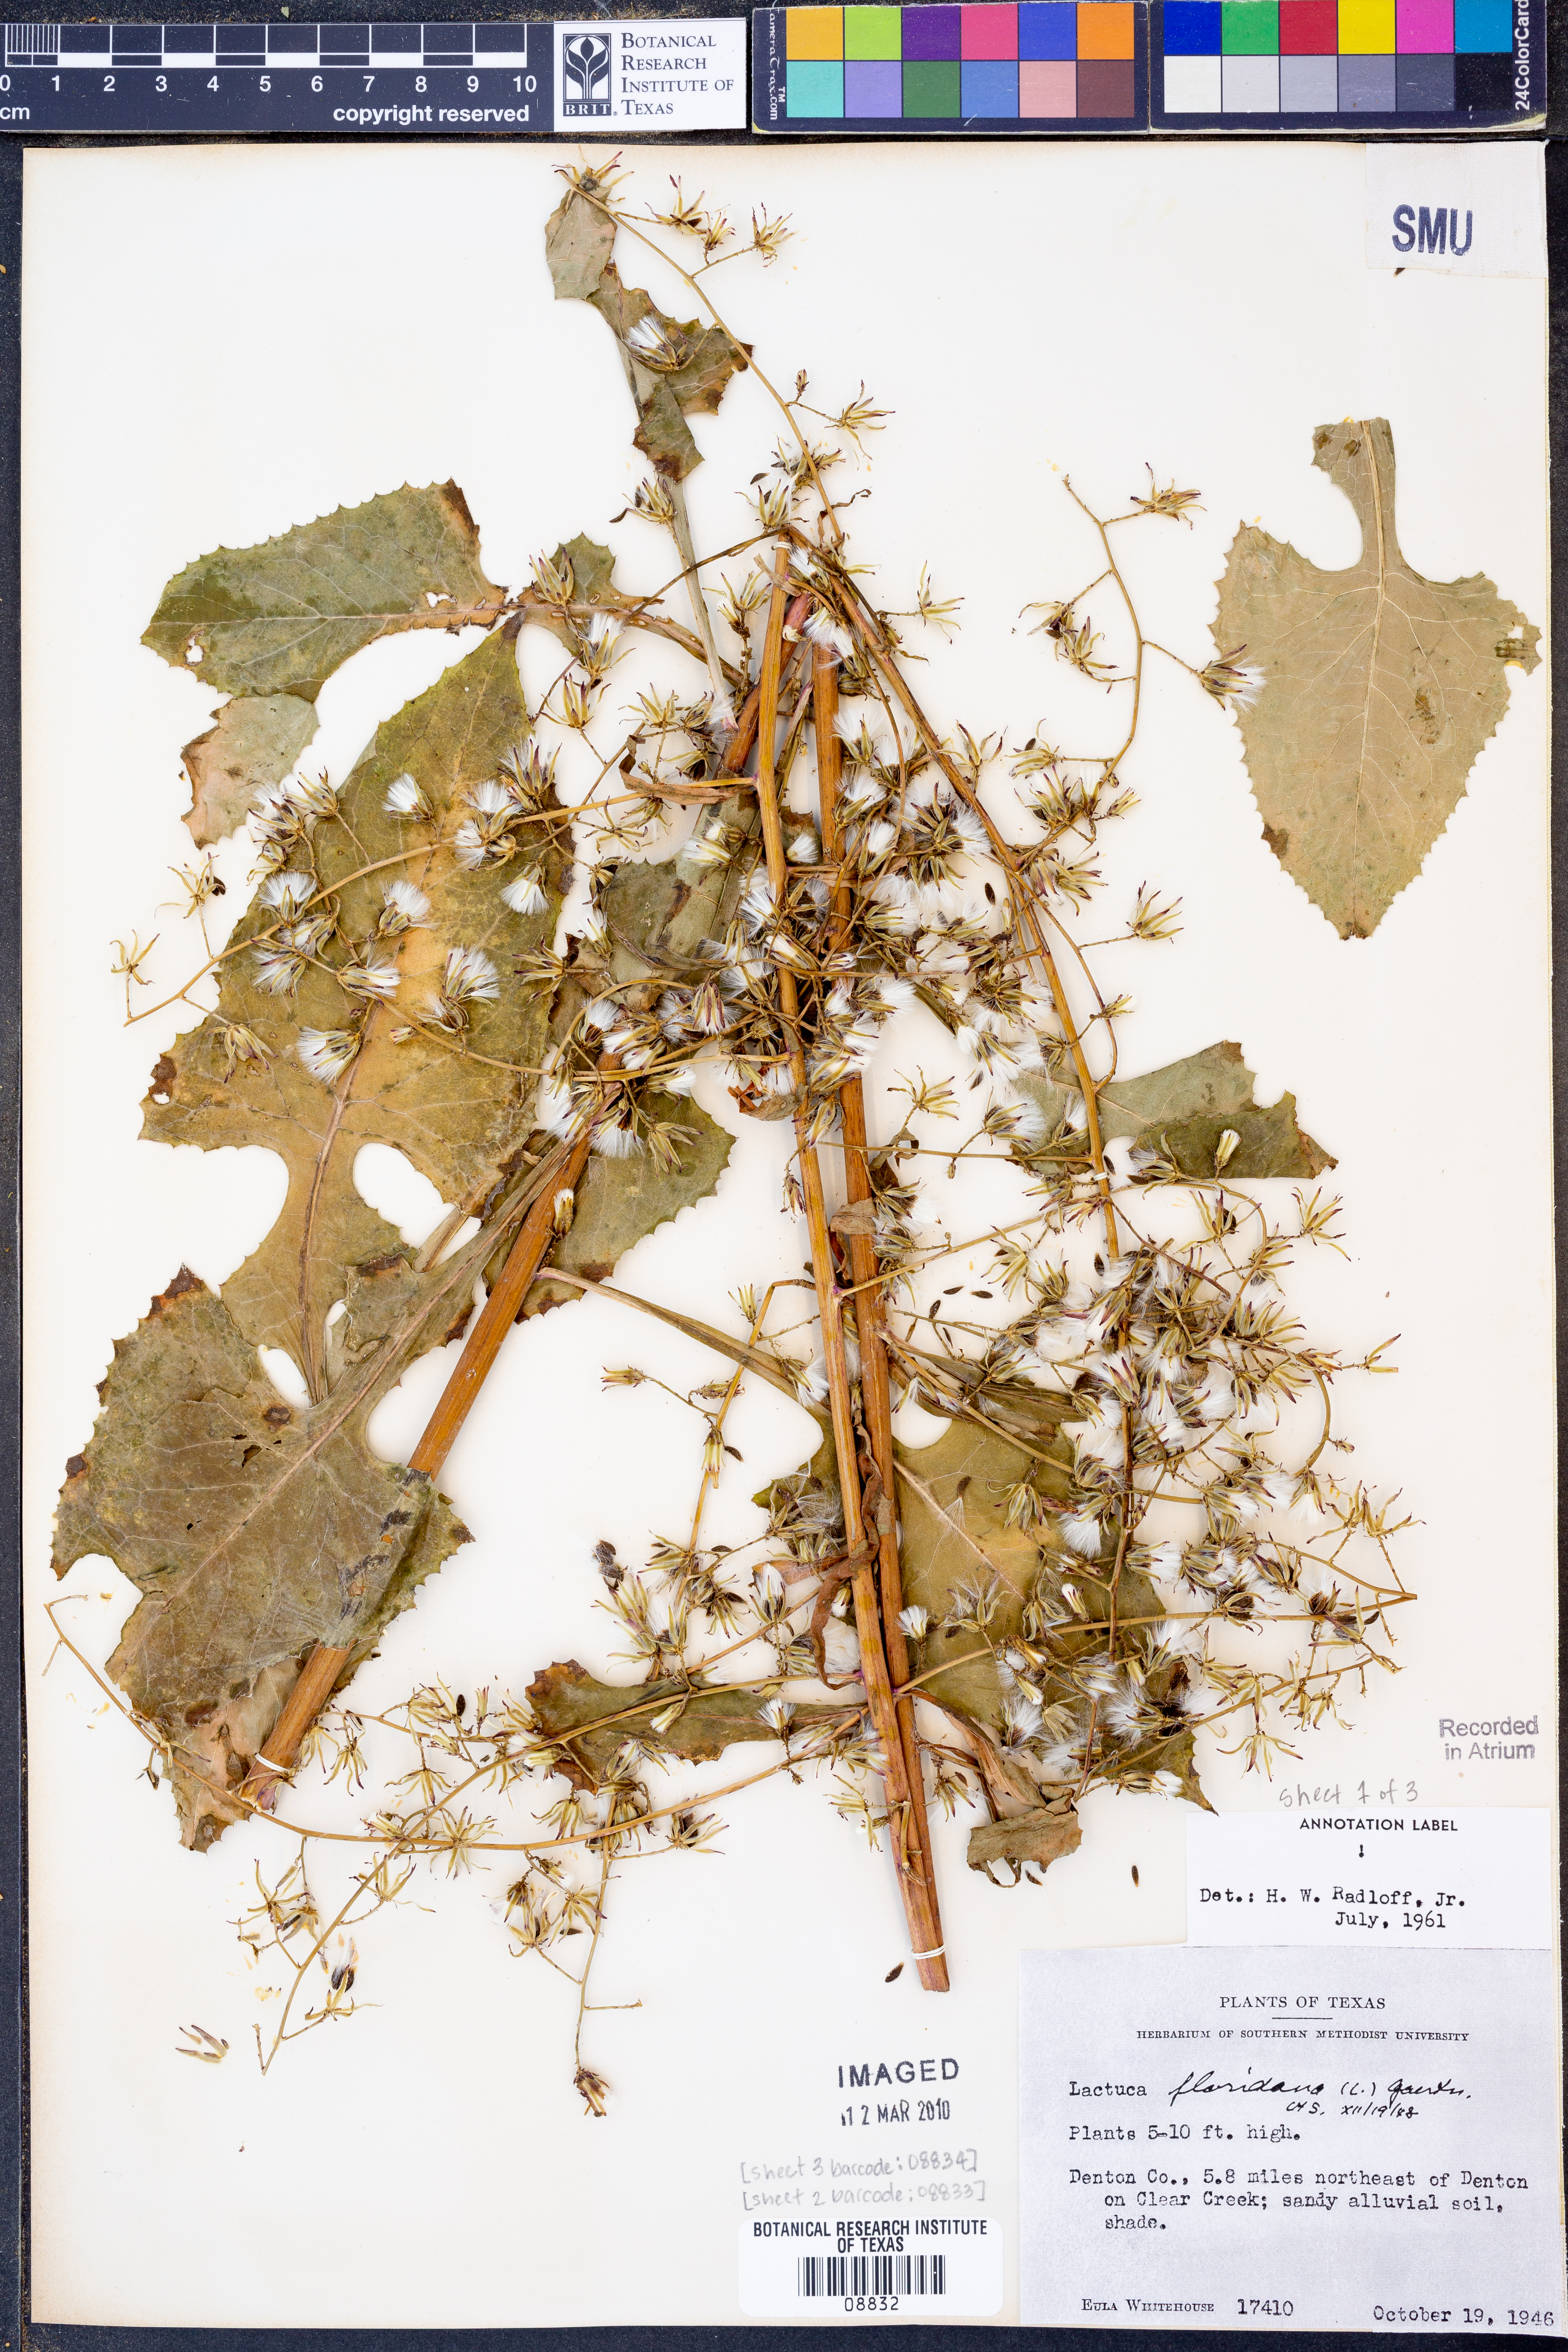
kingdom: Plantae
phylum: Tracheophyta
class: Magnoliopsida
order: Asterales
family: Asteraceae
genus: Lactuca
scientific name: Lactuca floridana
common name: Woodland lettuce
